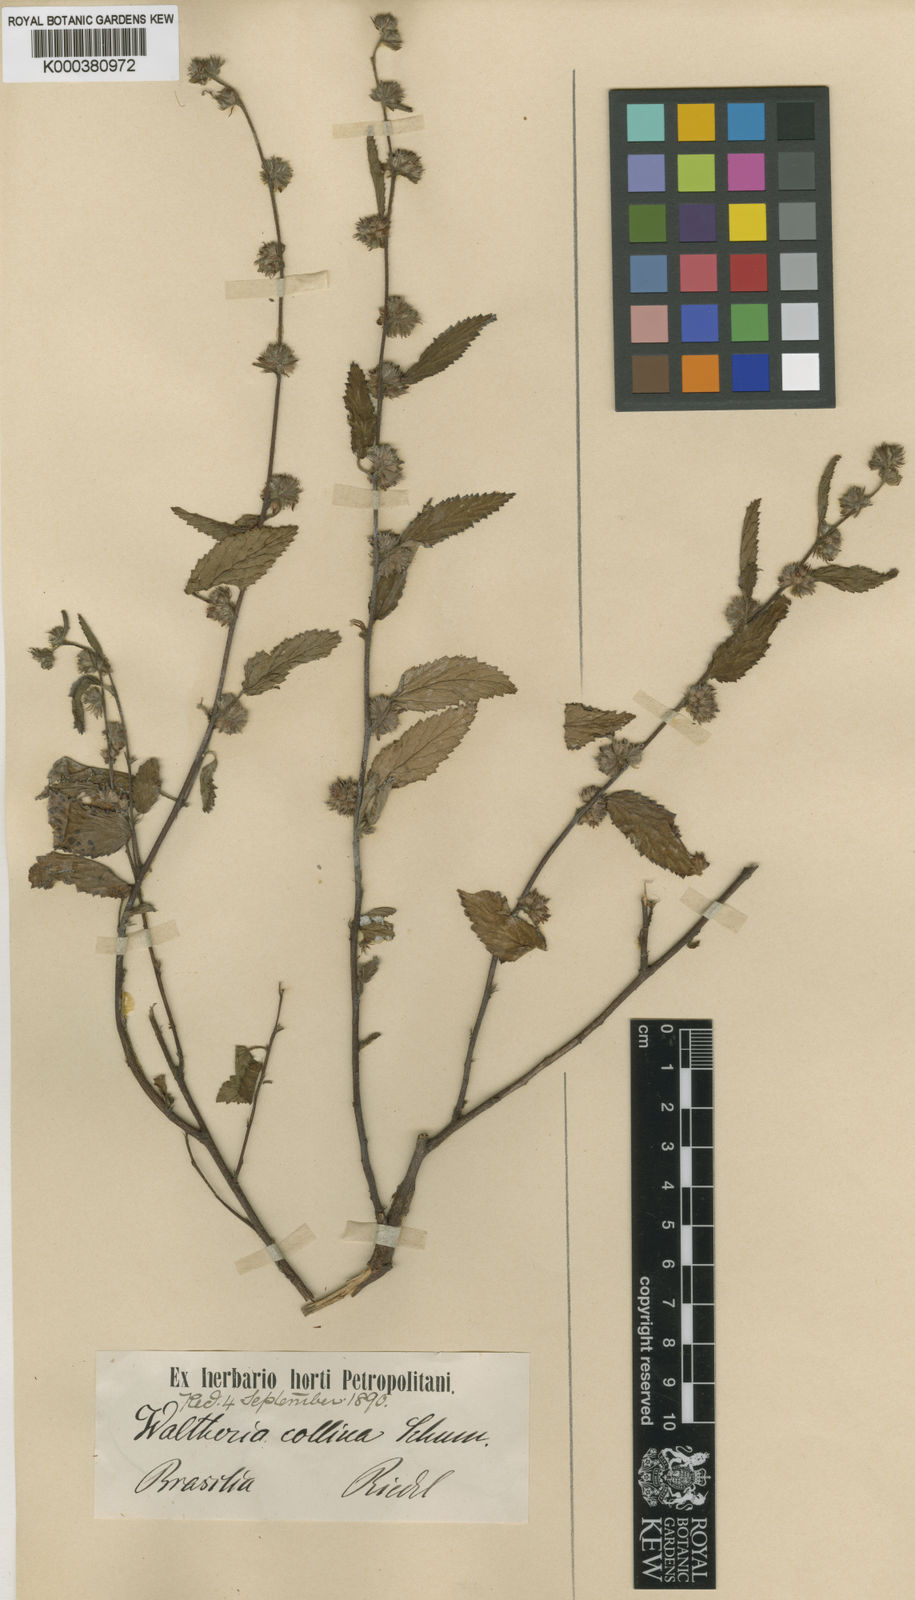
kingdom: Plantae
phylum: Tracheophyta
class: Magnoliopsida
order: Malvales
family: Malvaceae
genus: Waltheria
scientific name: Waltheria collina
